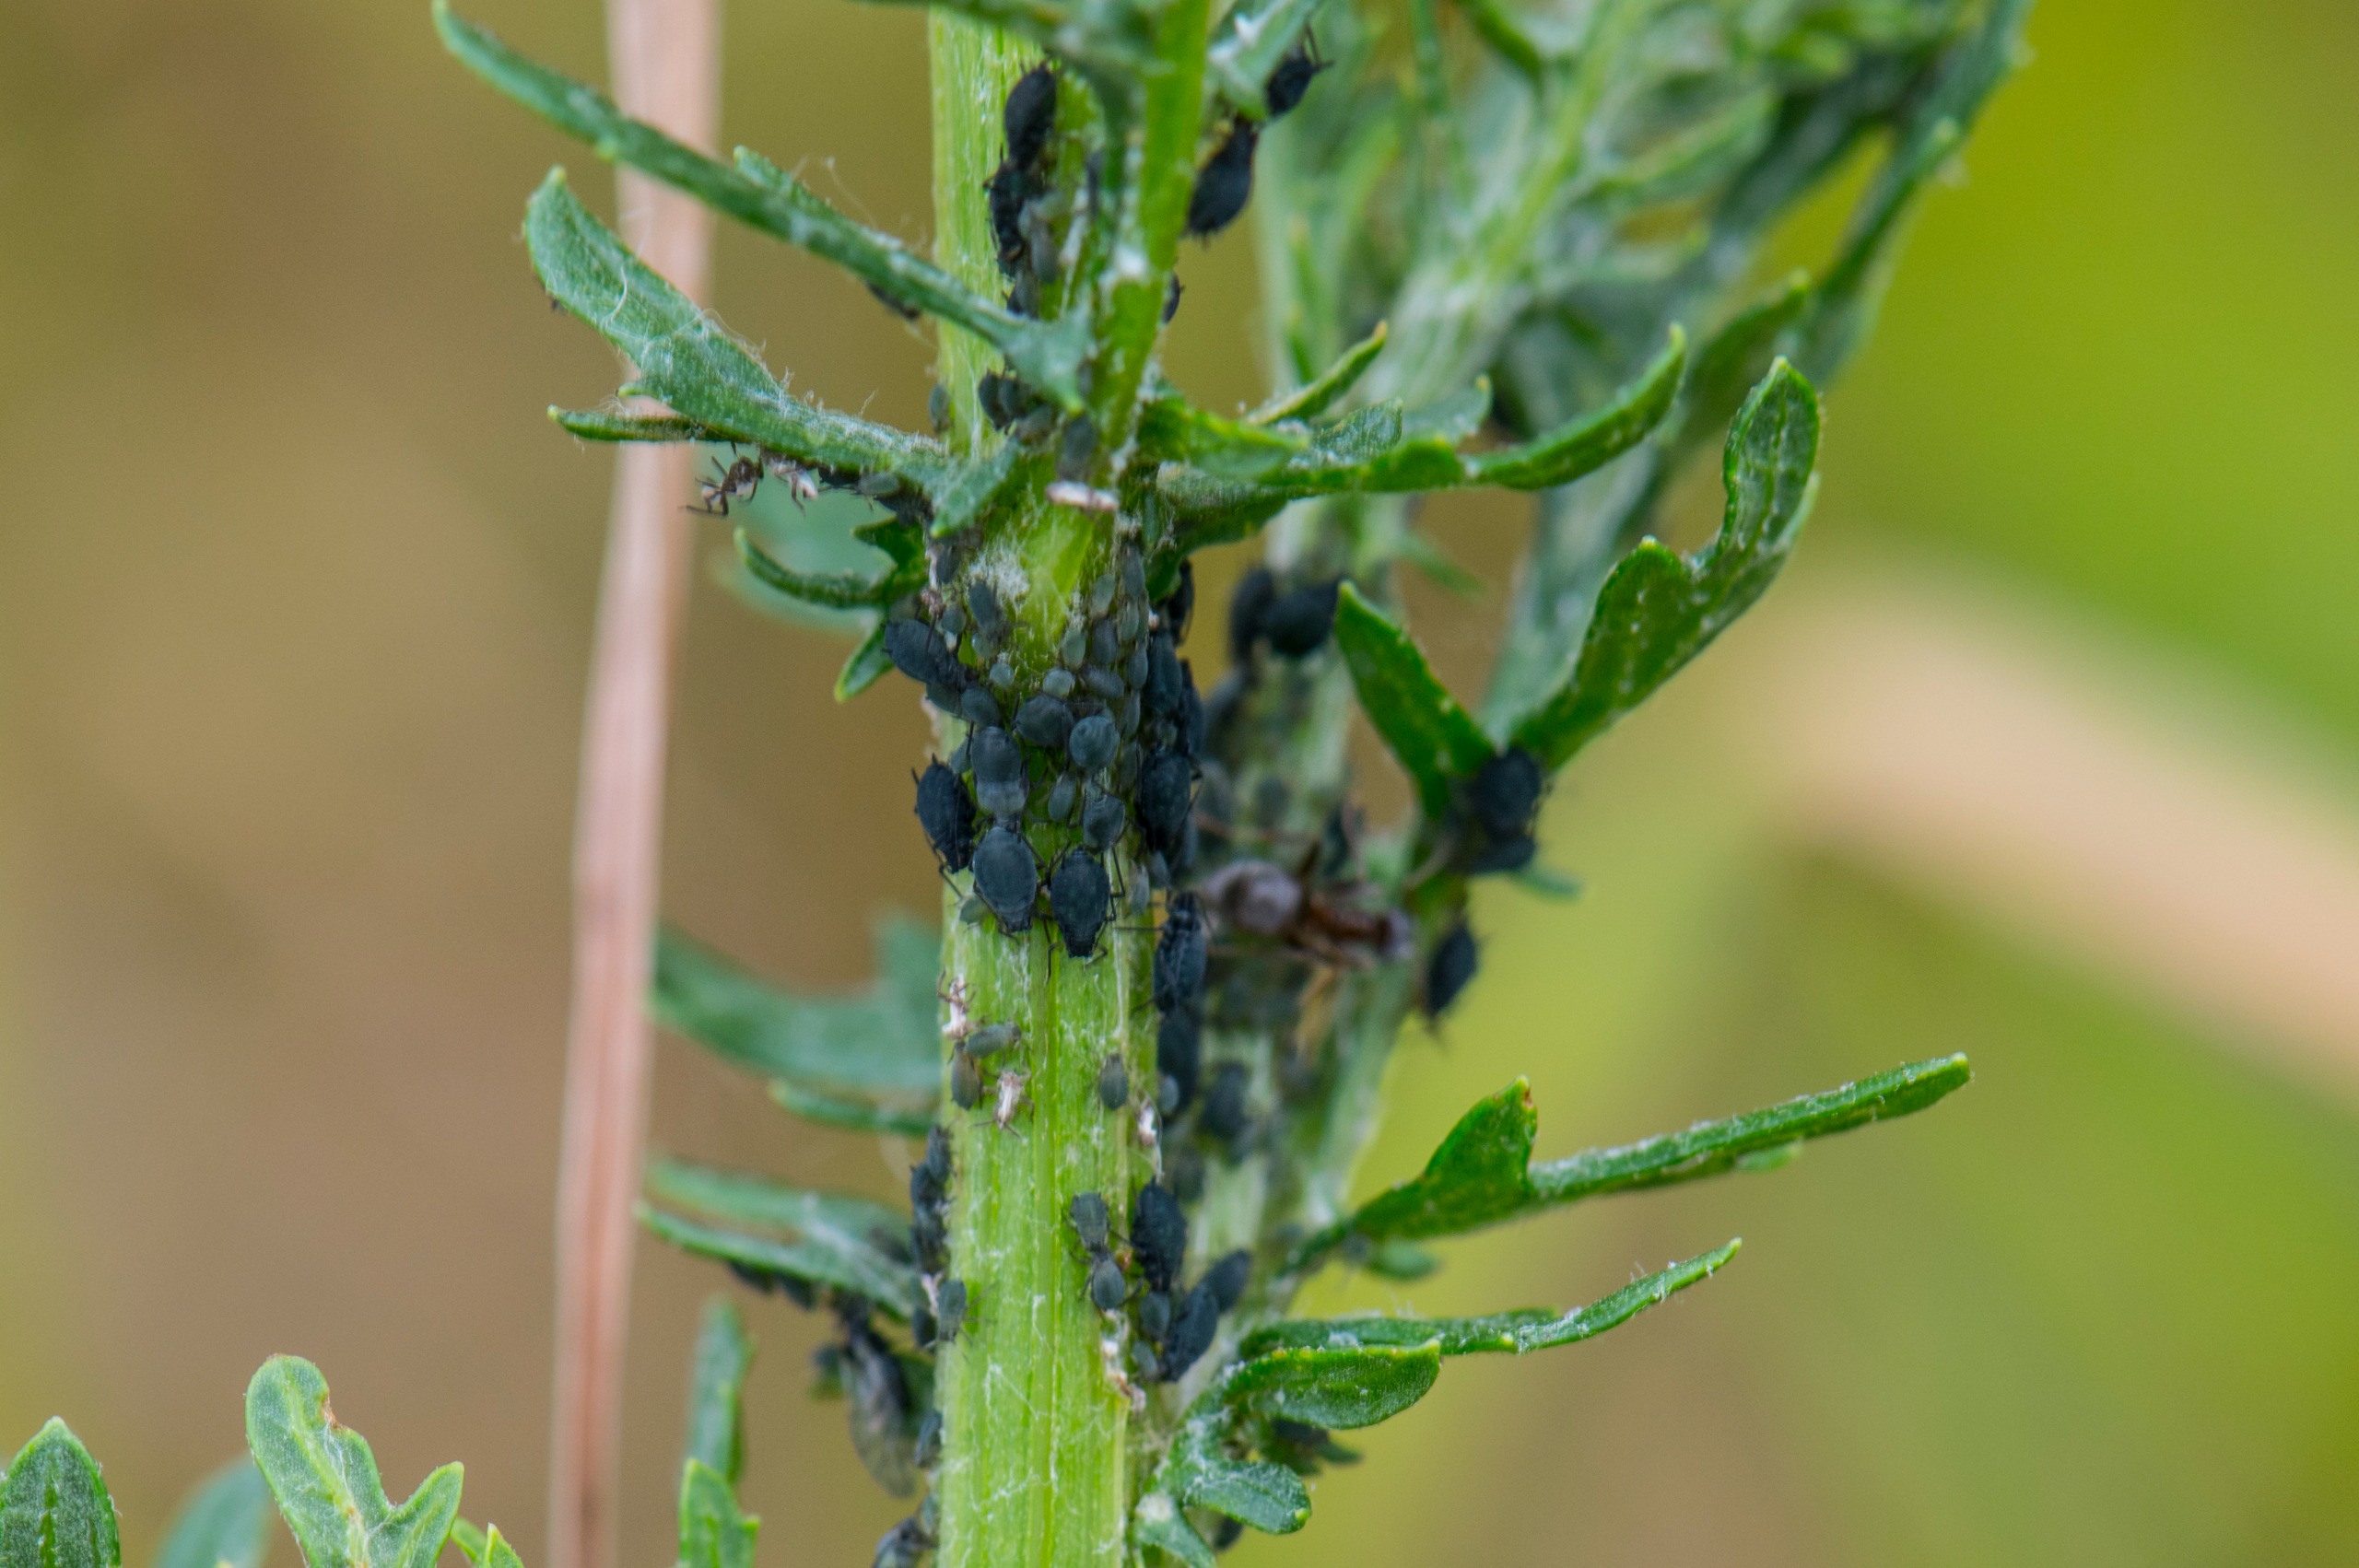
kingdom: Animalia
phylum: Arthropoda
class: Insecta
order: Hemiptera
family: Aphididae
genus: Aphis
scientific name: Aphis jacobaeae
